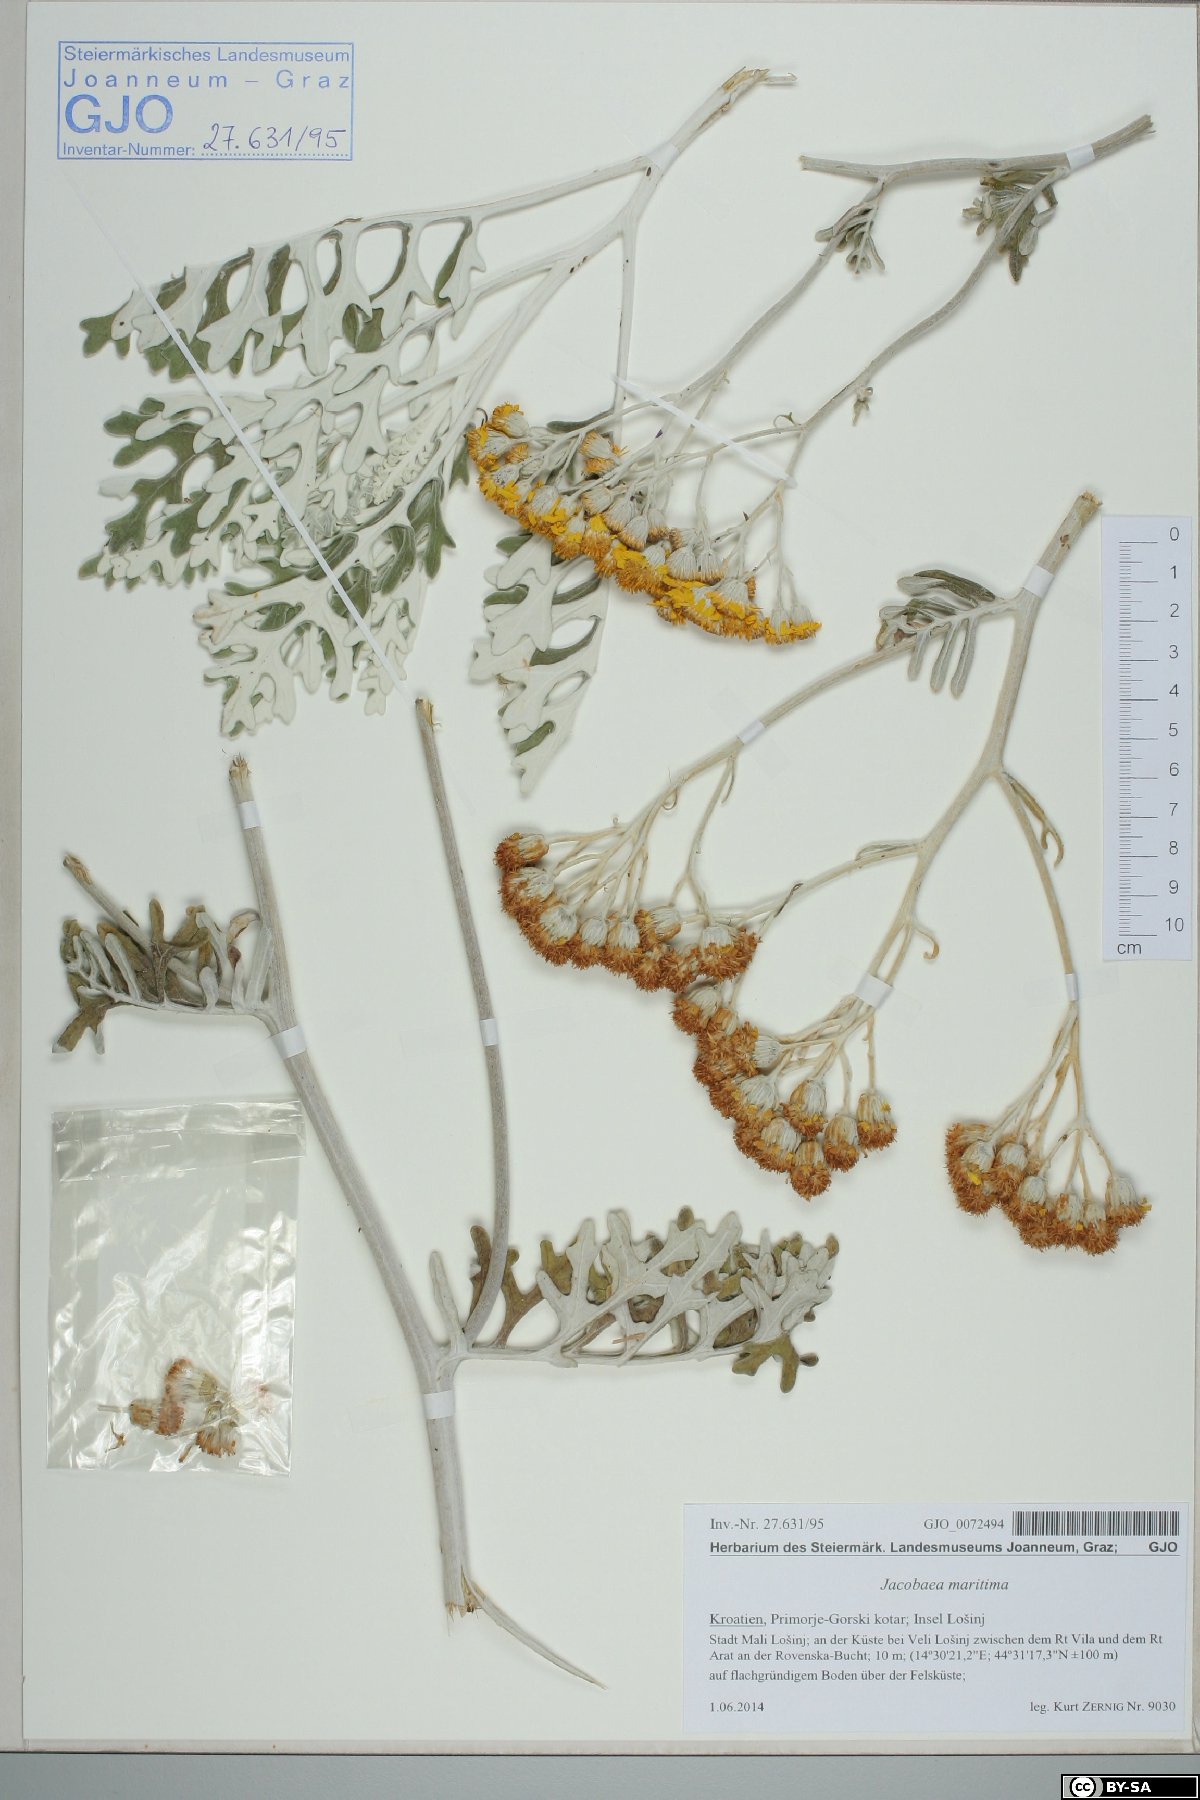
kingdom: Plantae
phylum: Tracheophyta
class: Magnoliopsida
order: Asterales
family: Asteraceae
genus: Jacobaea
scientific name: Jacobaea maritima
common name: Silver ragwort
